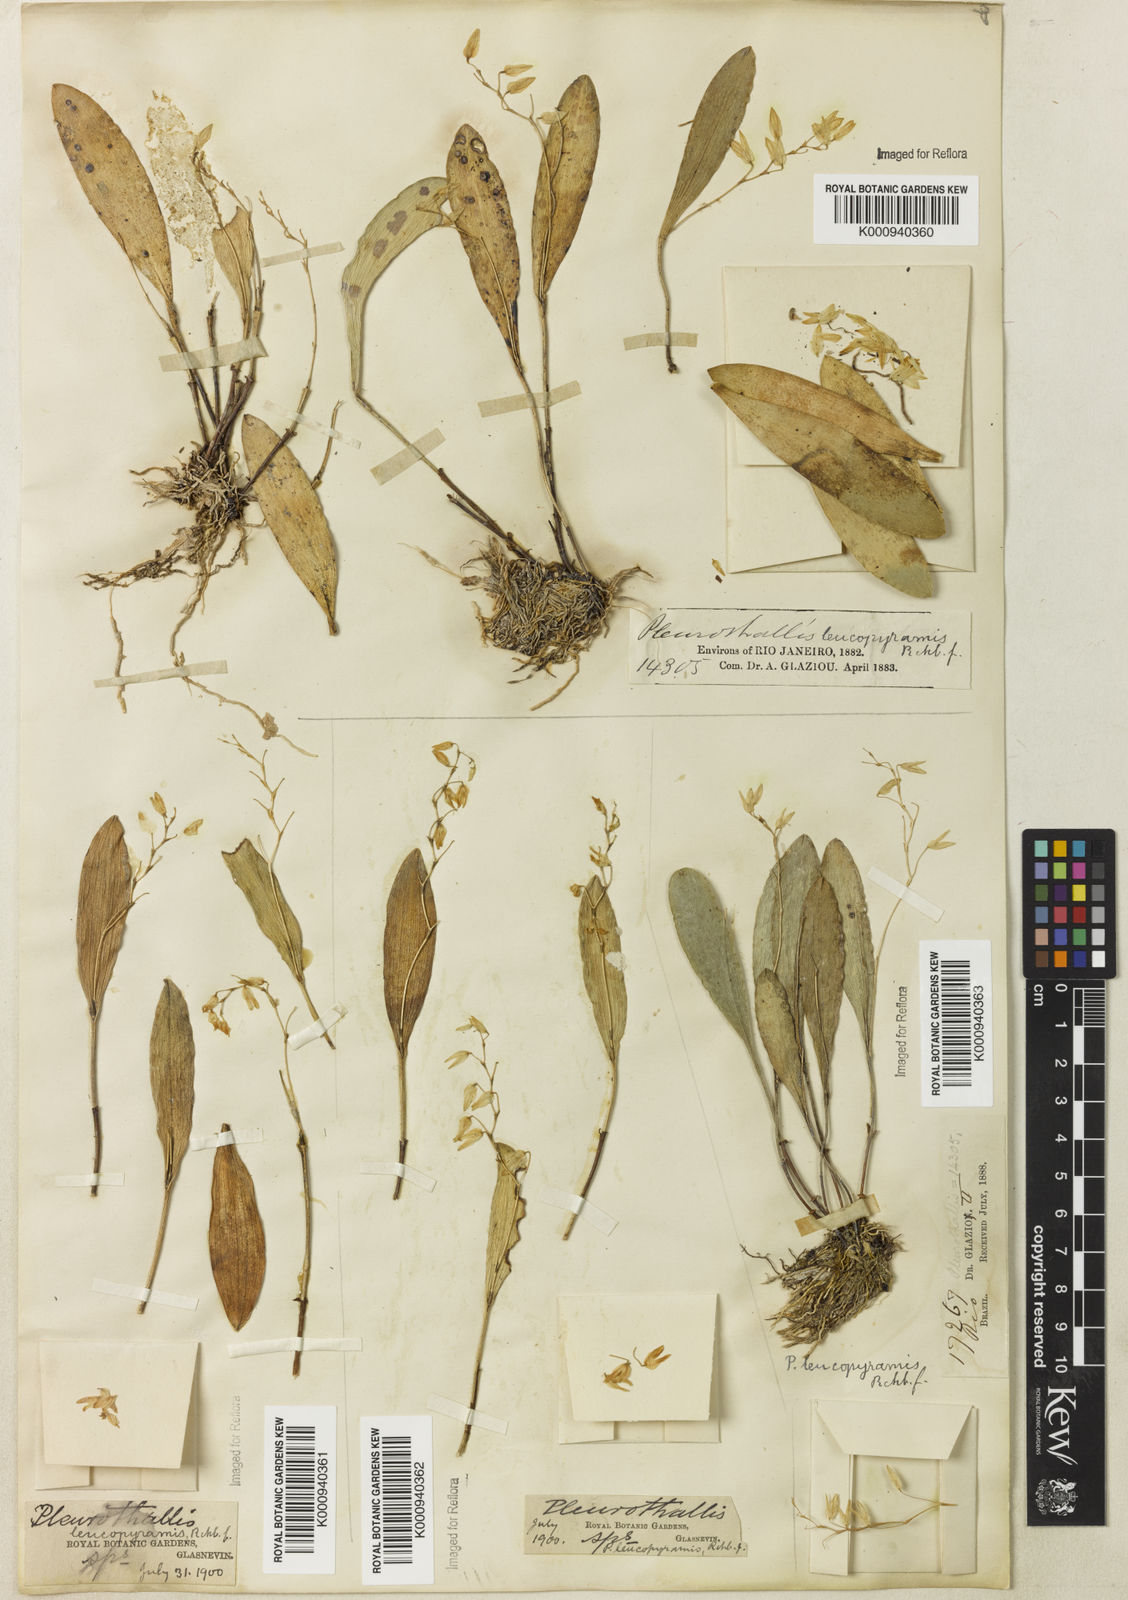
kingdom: Plantae
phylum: Tracheophyta
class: Liliopsida
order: Asparagales
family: Orchidaceae
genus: Pabstiella
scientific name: Pabstiella leucopyramis
